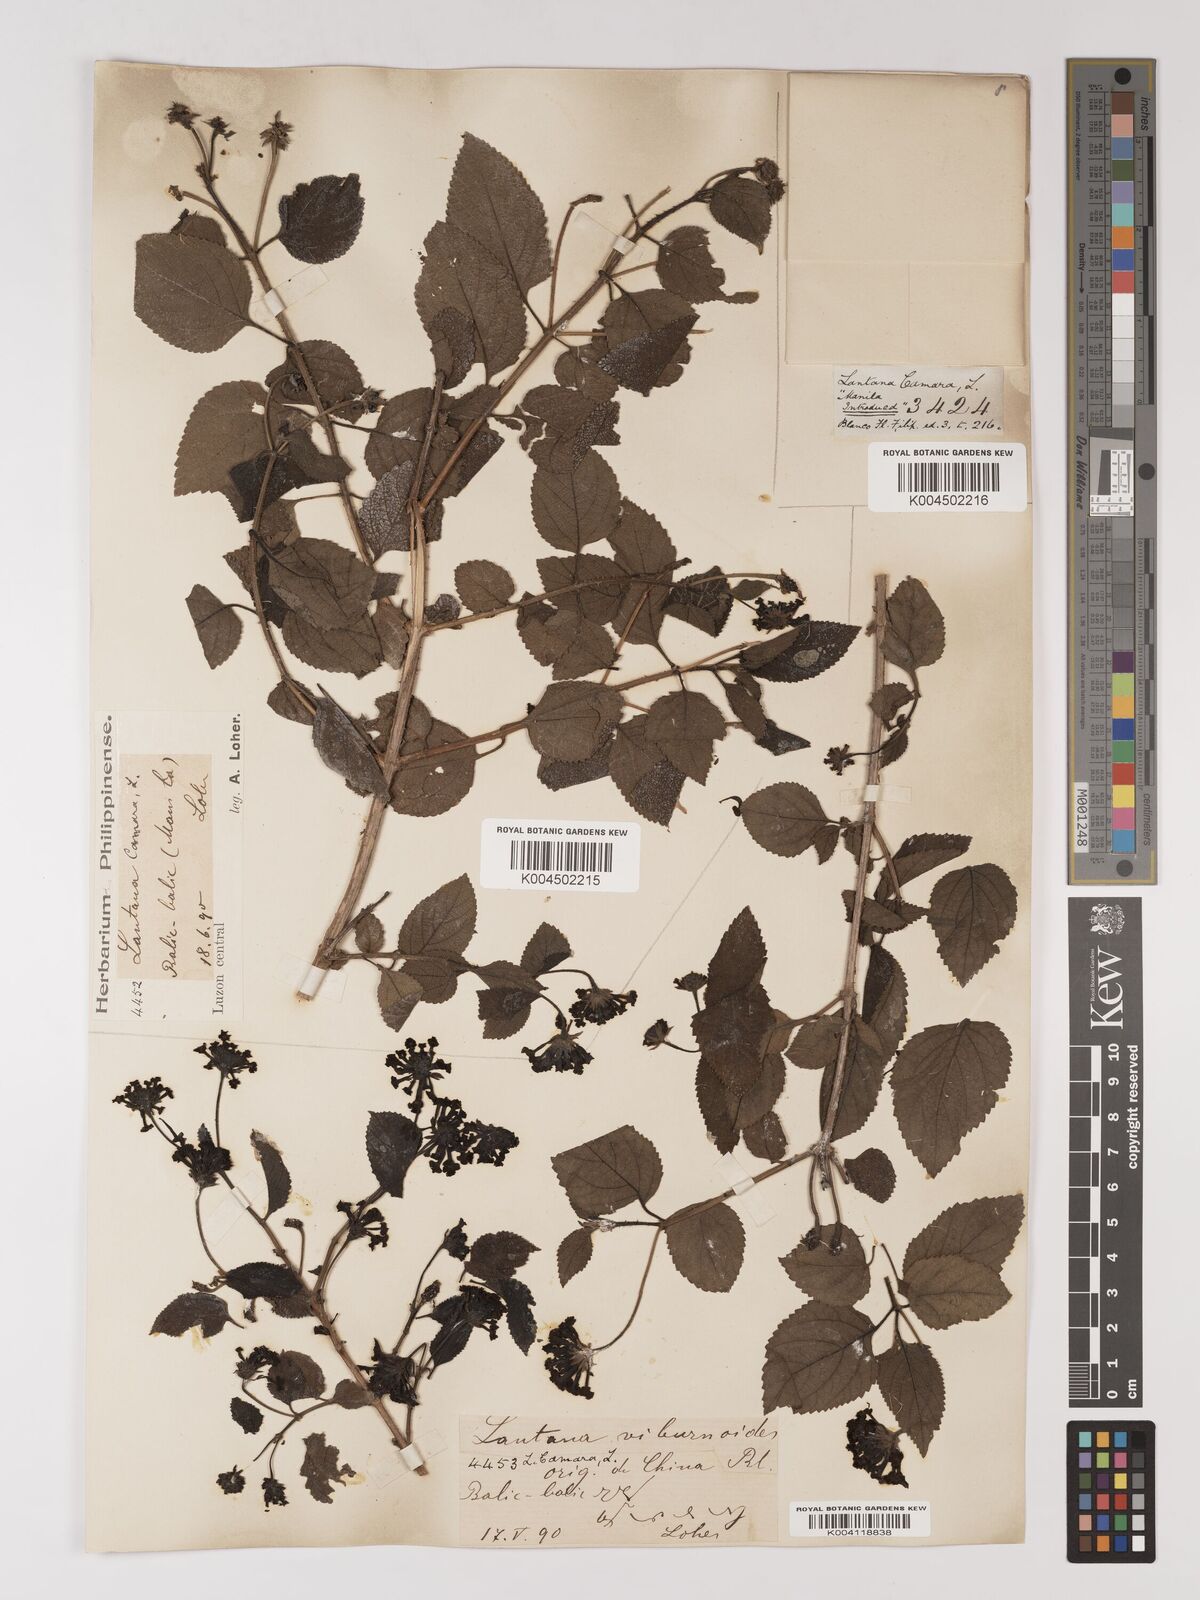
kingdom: Plantae
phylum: Tracheophyta
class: Magnoliopsida
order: Lamiales
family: Verbenaceae
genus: Lantana
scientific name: Lantana
